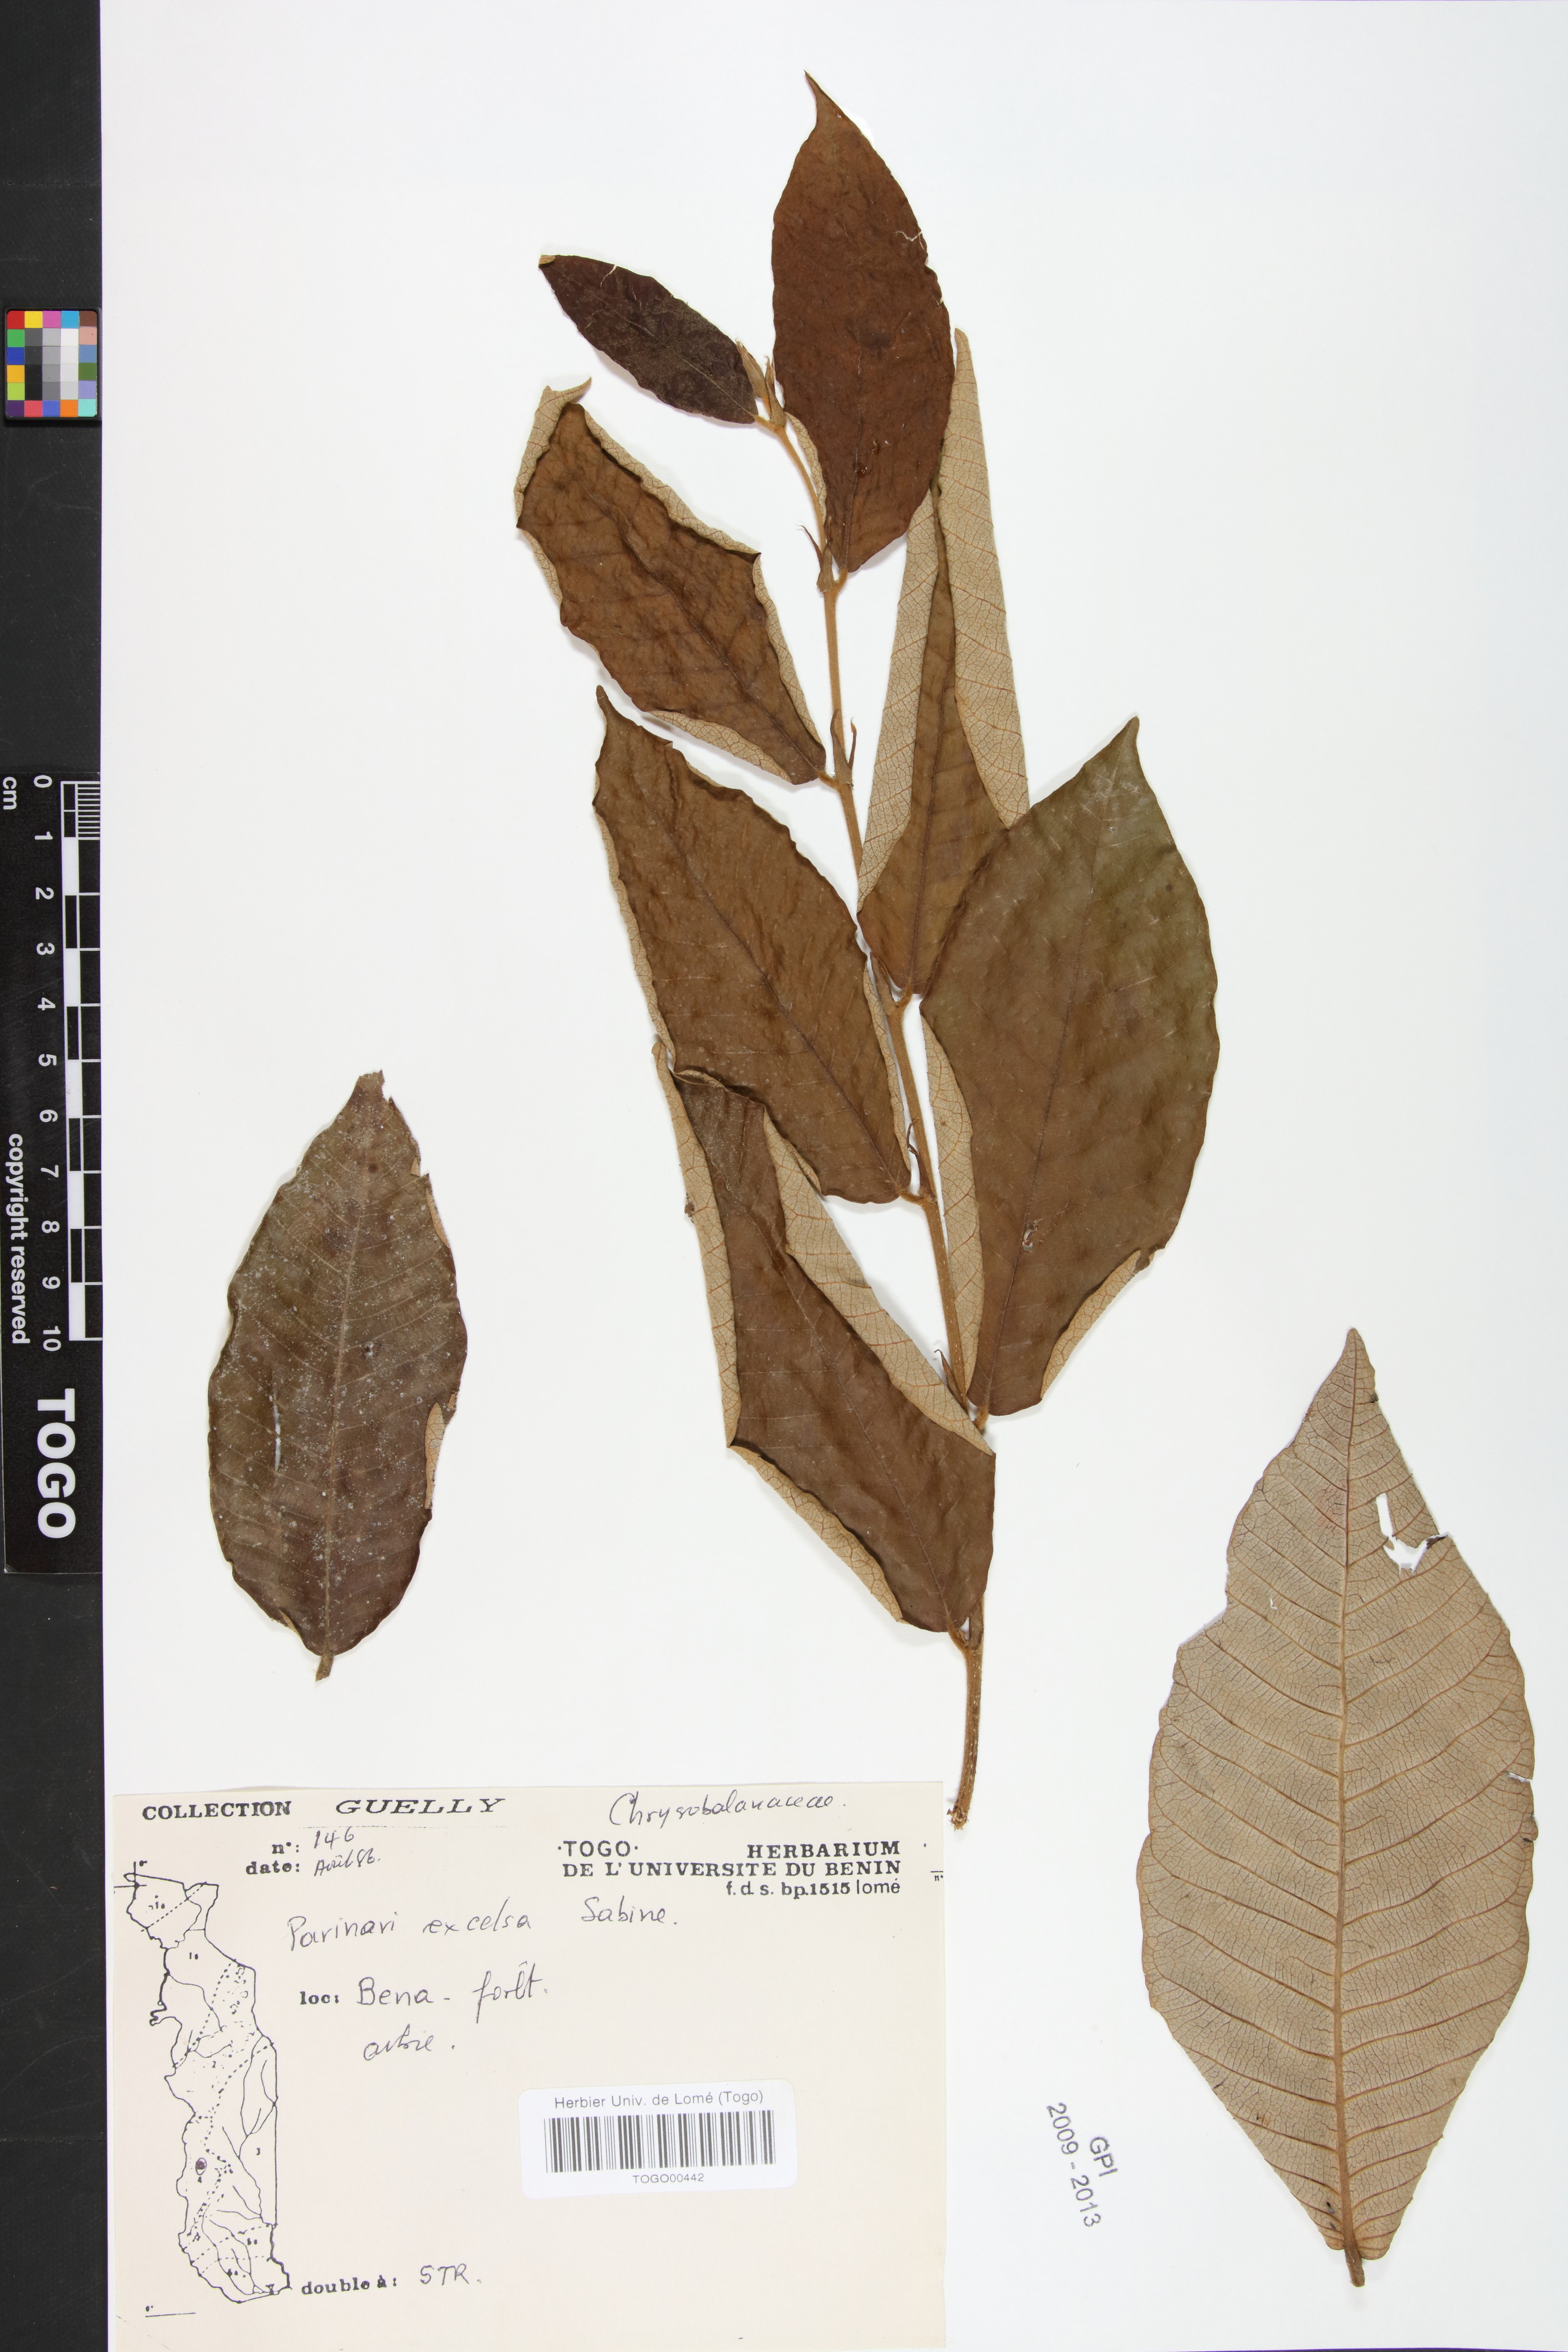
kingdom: Plantae
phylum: Tracheophyta
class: Magnoliopsida
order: Malpighiales
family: Chrysobalanaceae
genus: Parinari
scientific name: Parinari excelsa
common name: Guinea-plum
